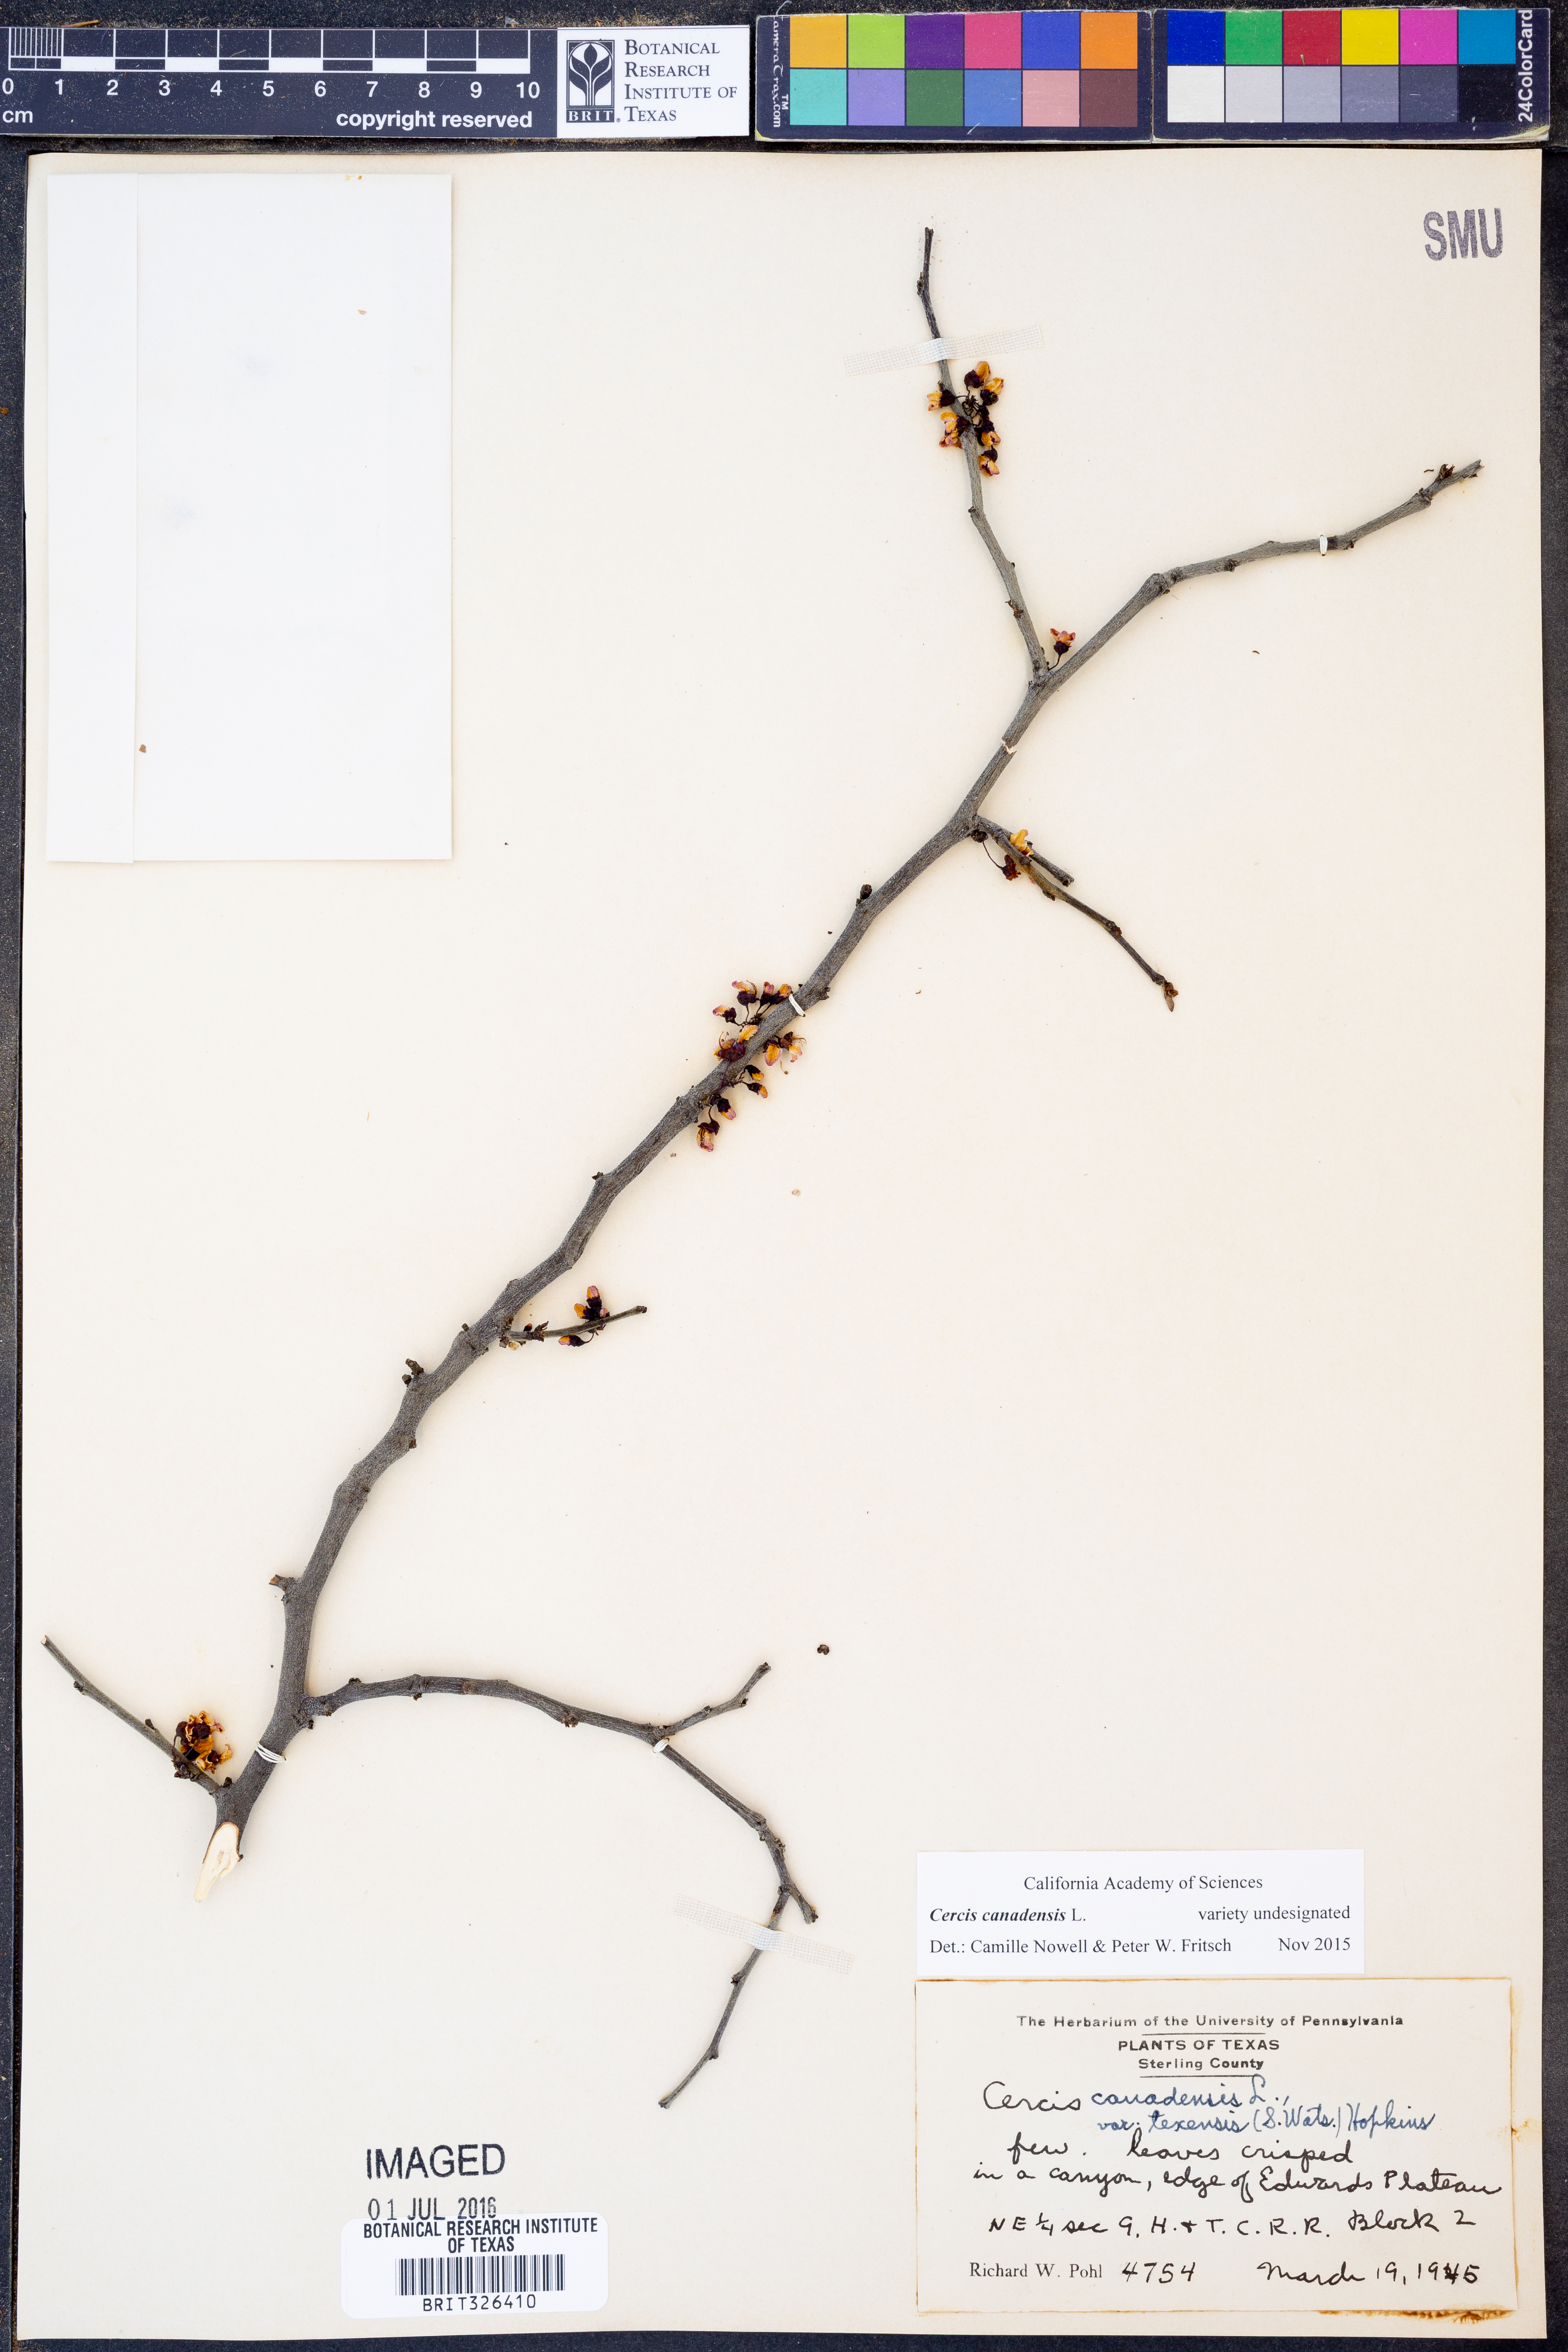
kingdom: Plantae
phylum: Tracheophyta
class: Magnoliopsida
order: Fabales
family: Fabaceae
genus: Cercis
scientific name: Cercis canadensis
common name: Eastern redbud
